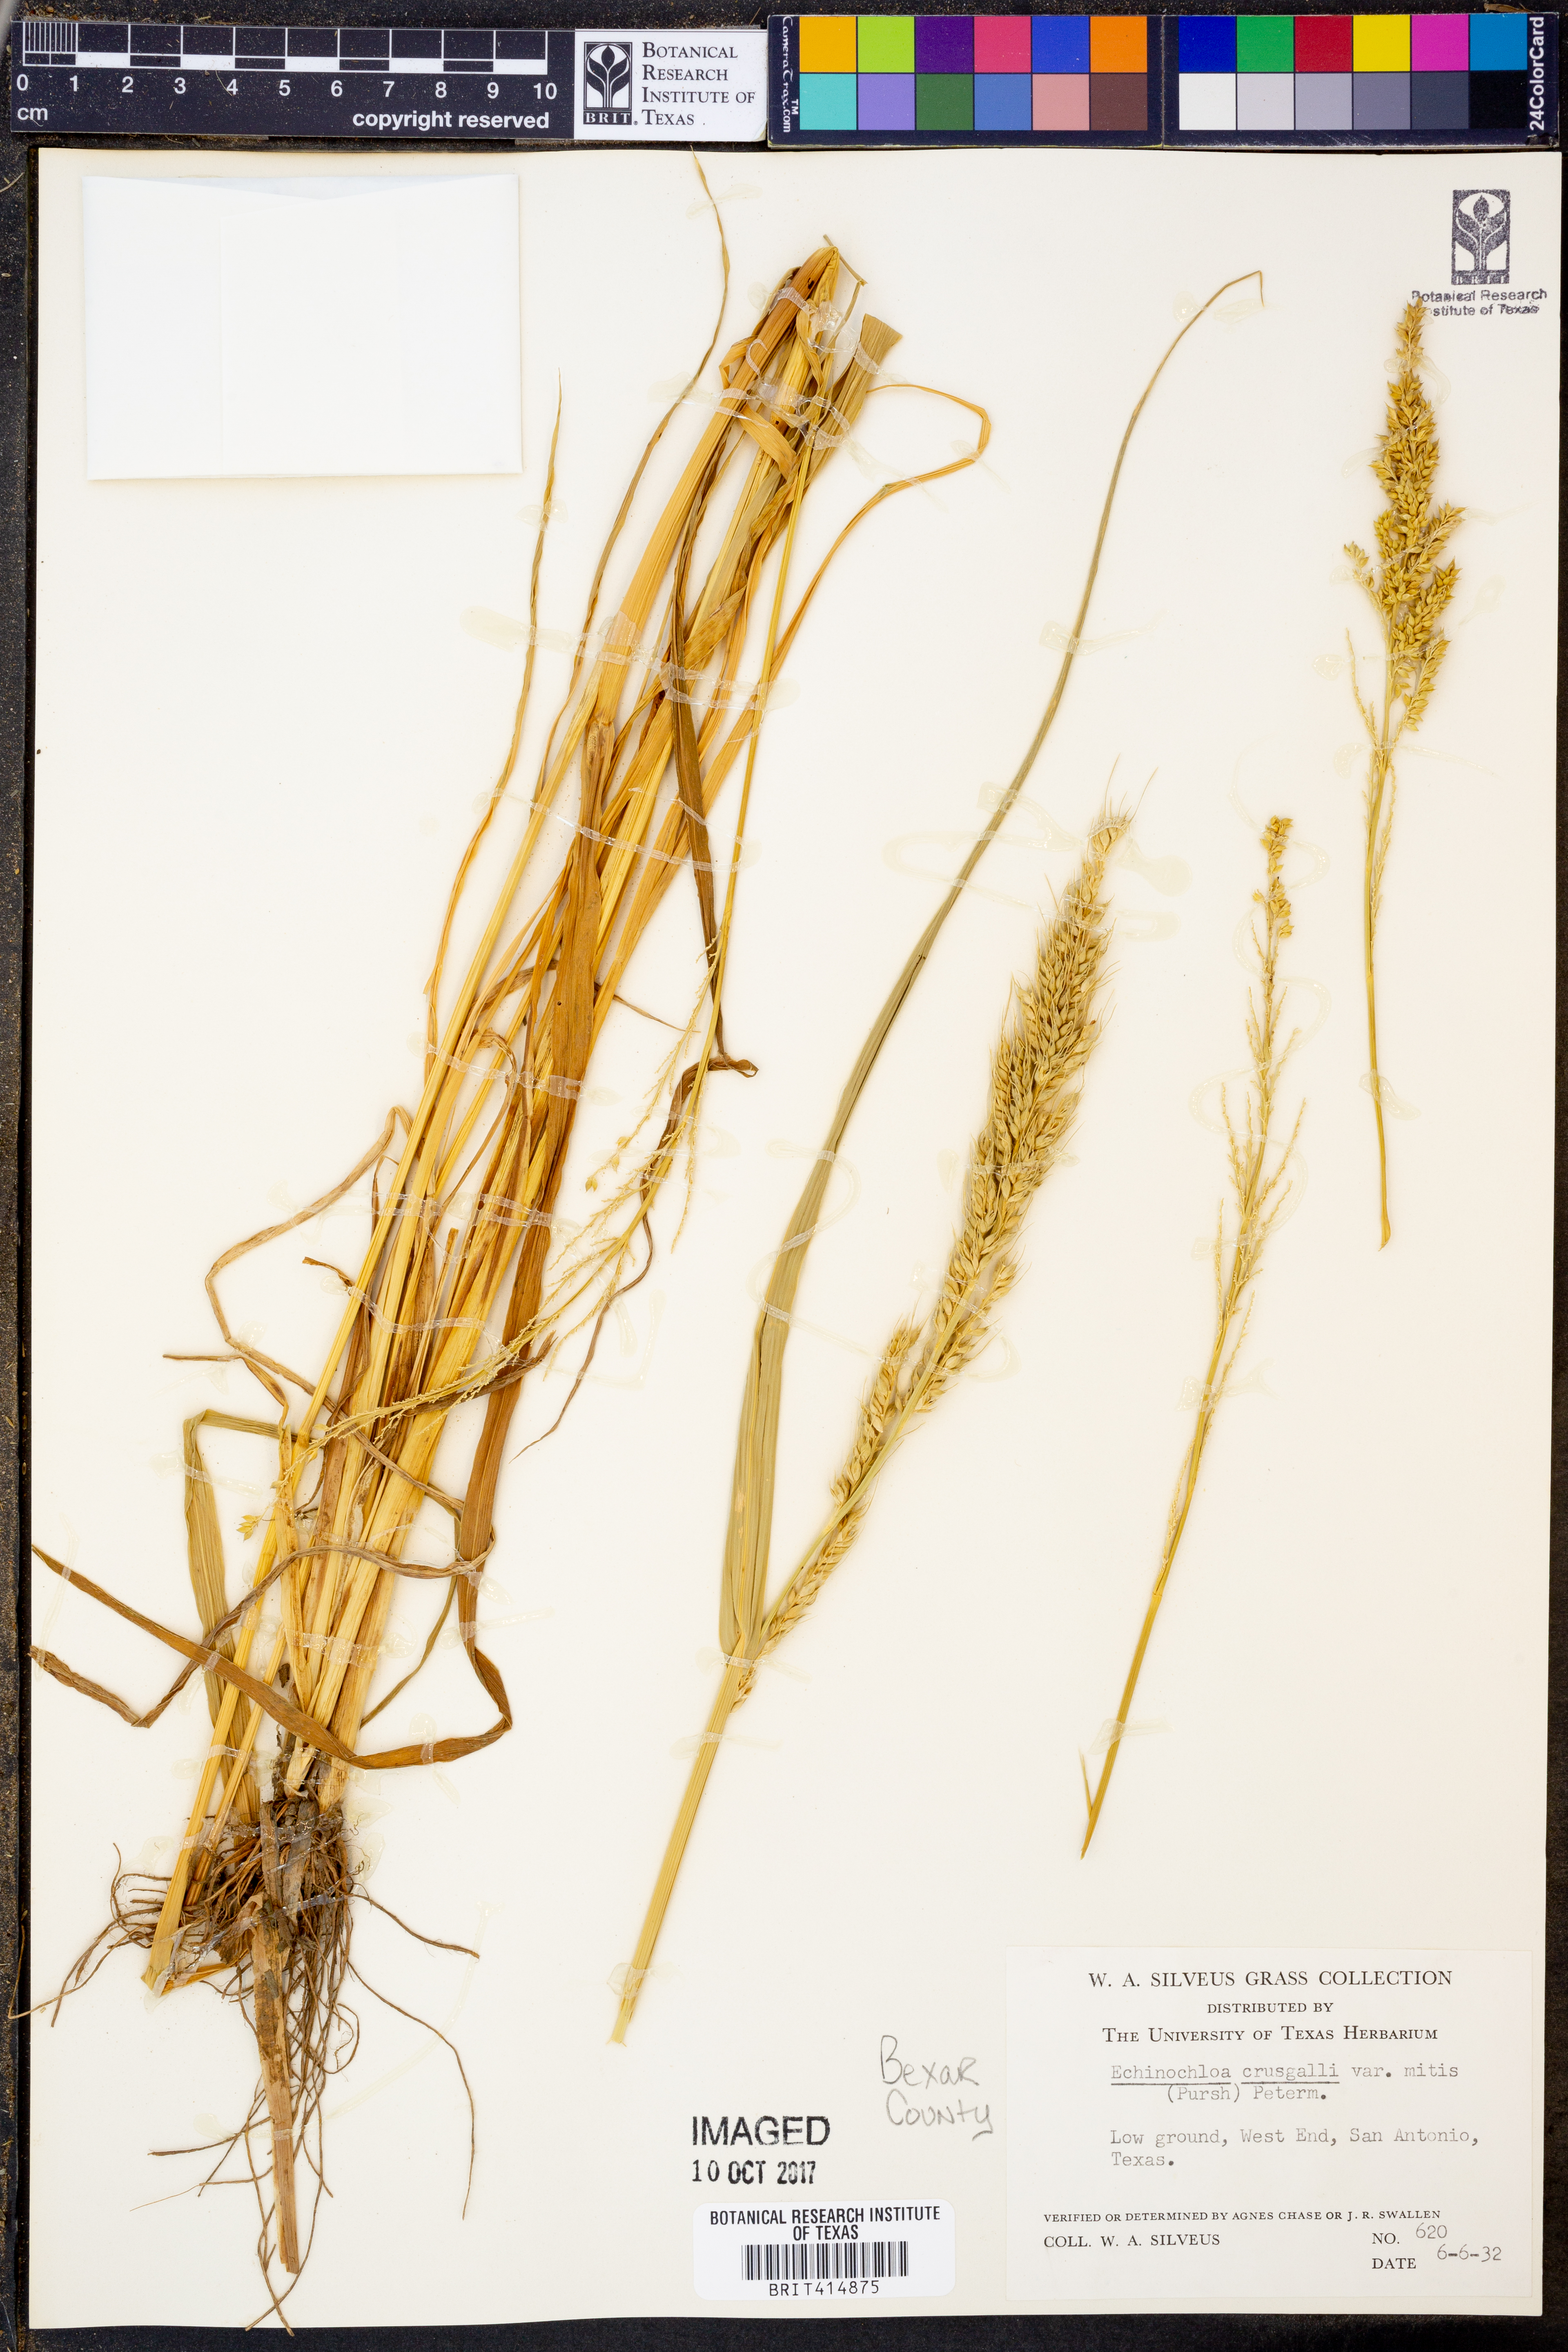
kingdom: Plantae
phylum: Tracheophyta
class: Liliopsida
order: Poales
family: Poaceae
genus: Echinochloa
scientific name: Echinochloa crus-galli
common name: Cockspur
